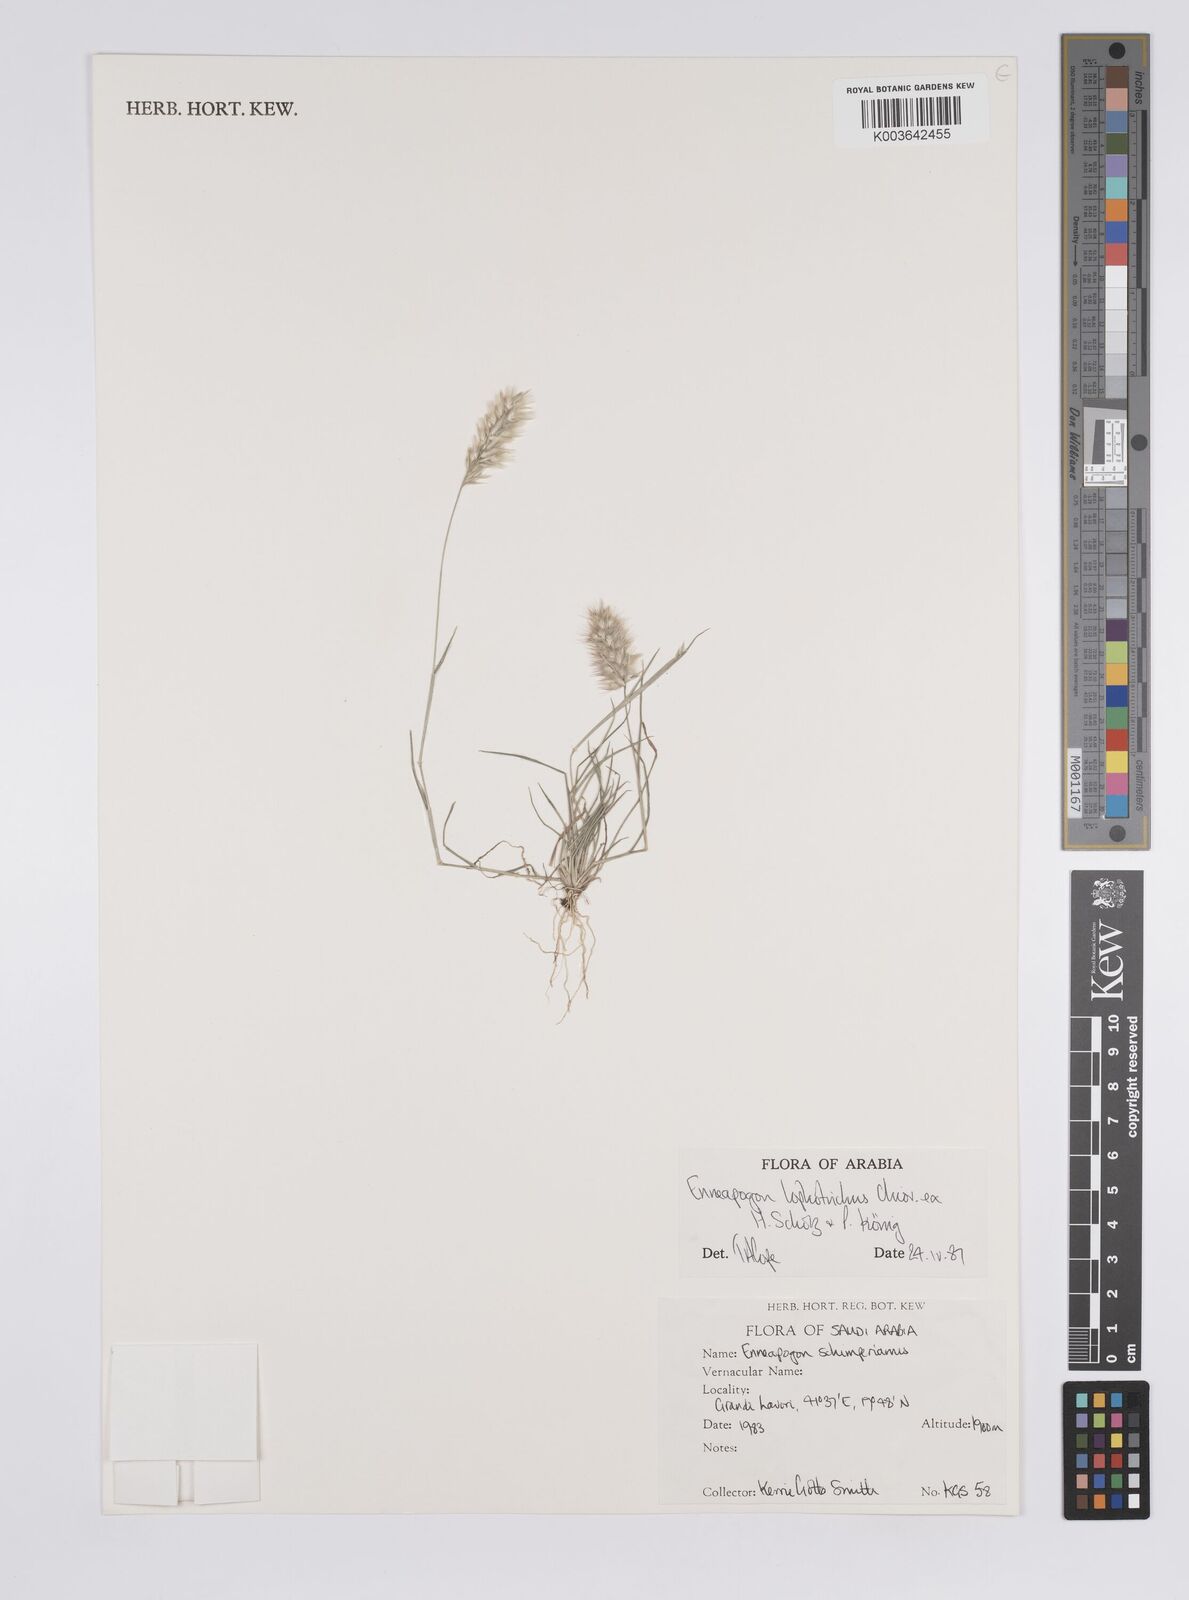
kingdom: Plantae
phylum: Tracheophyta
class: Liliopsida
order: Poales
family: Poaceae
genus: Enneapogon
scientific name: Enneapogon lophotrichus
